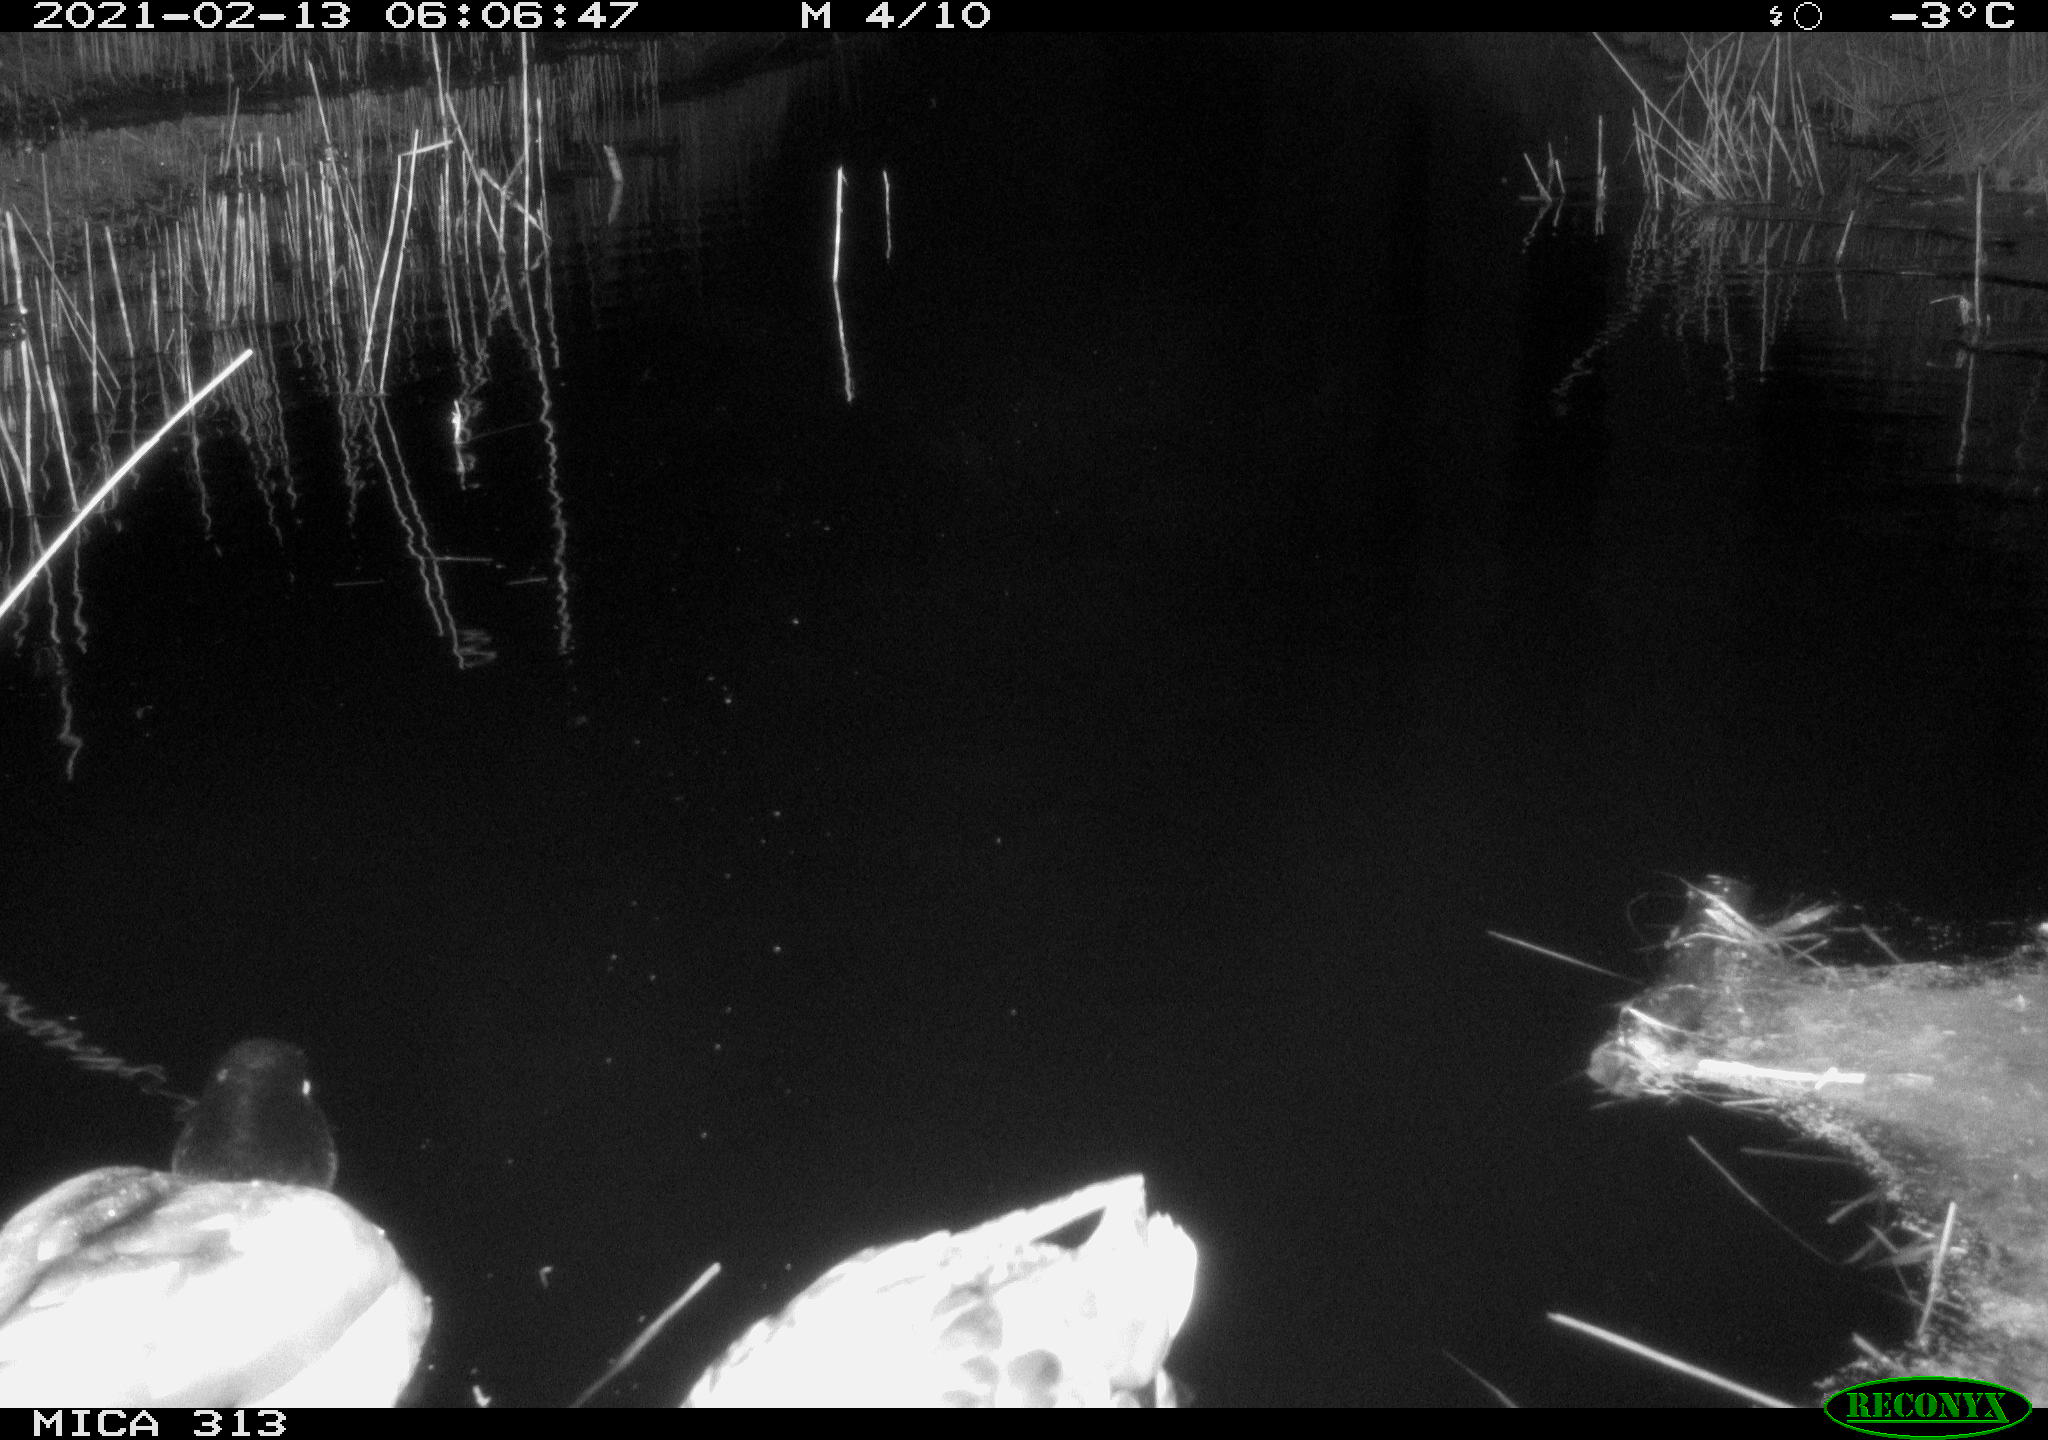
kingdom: Animalia
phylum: Chordata
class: Aves
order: Anseriformes
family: Anatidae
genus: Anas
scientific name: Anas
